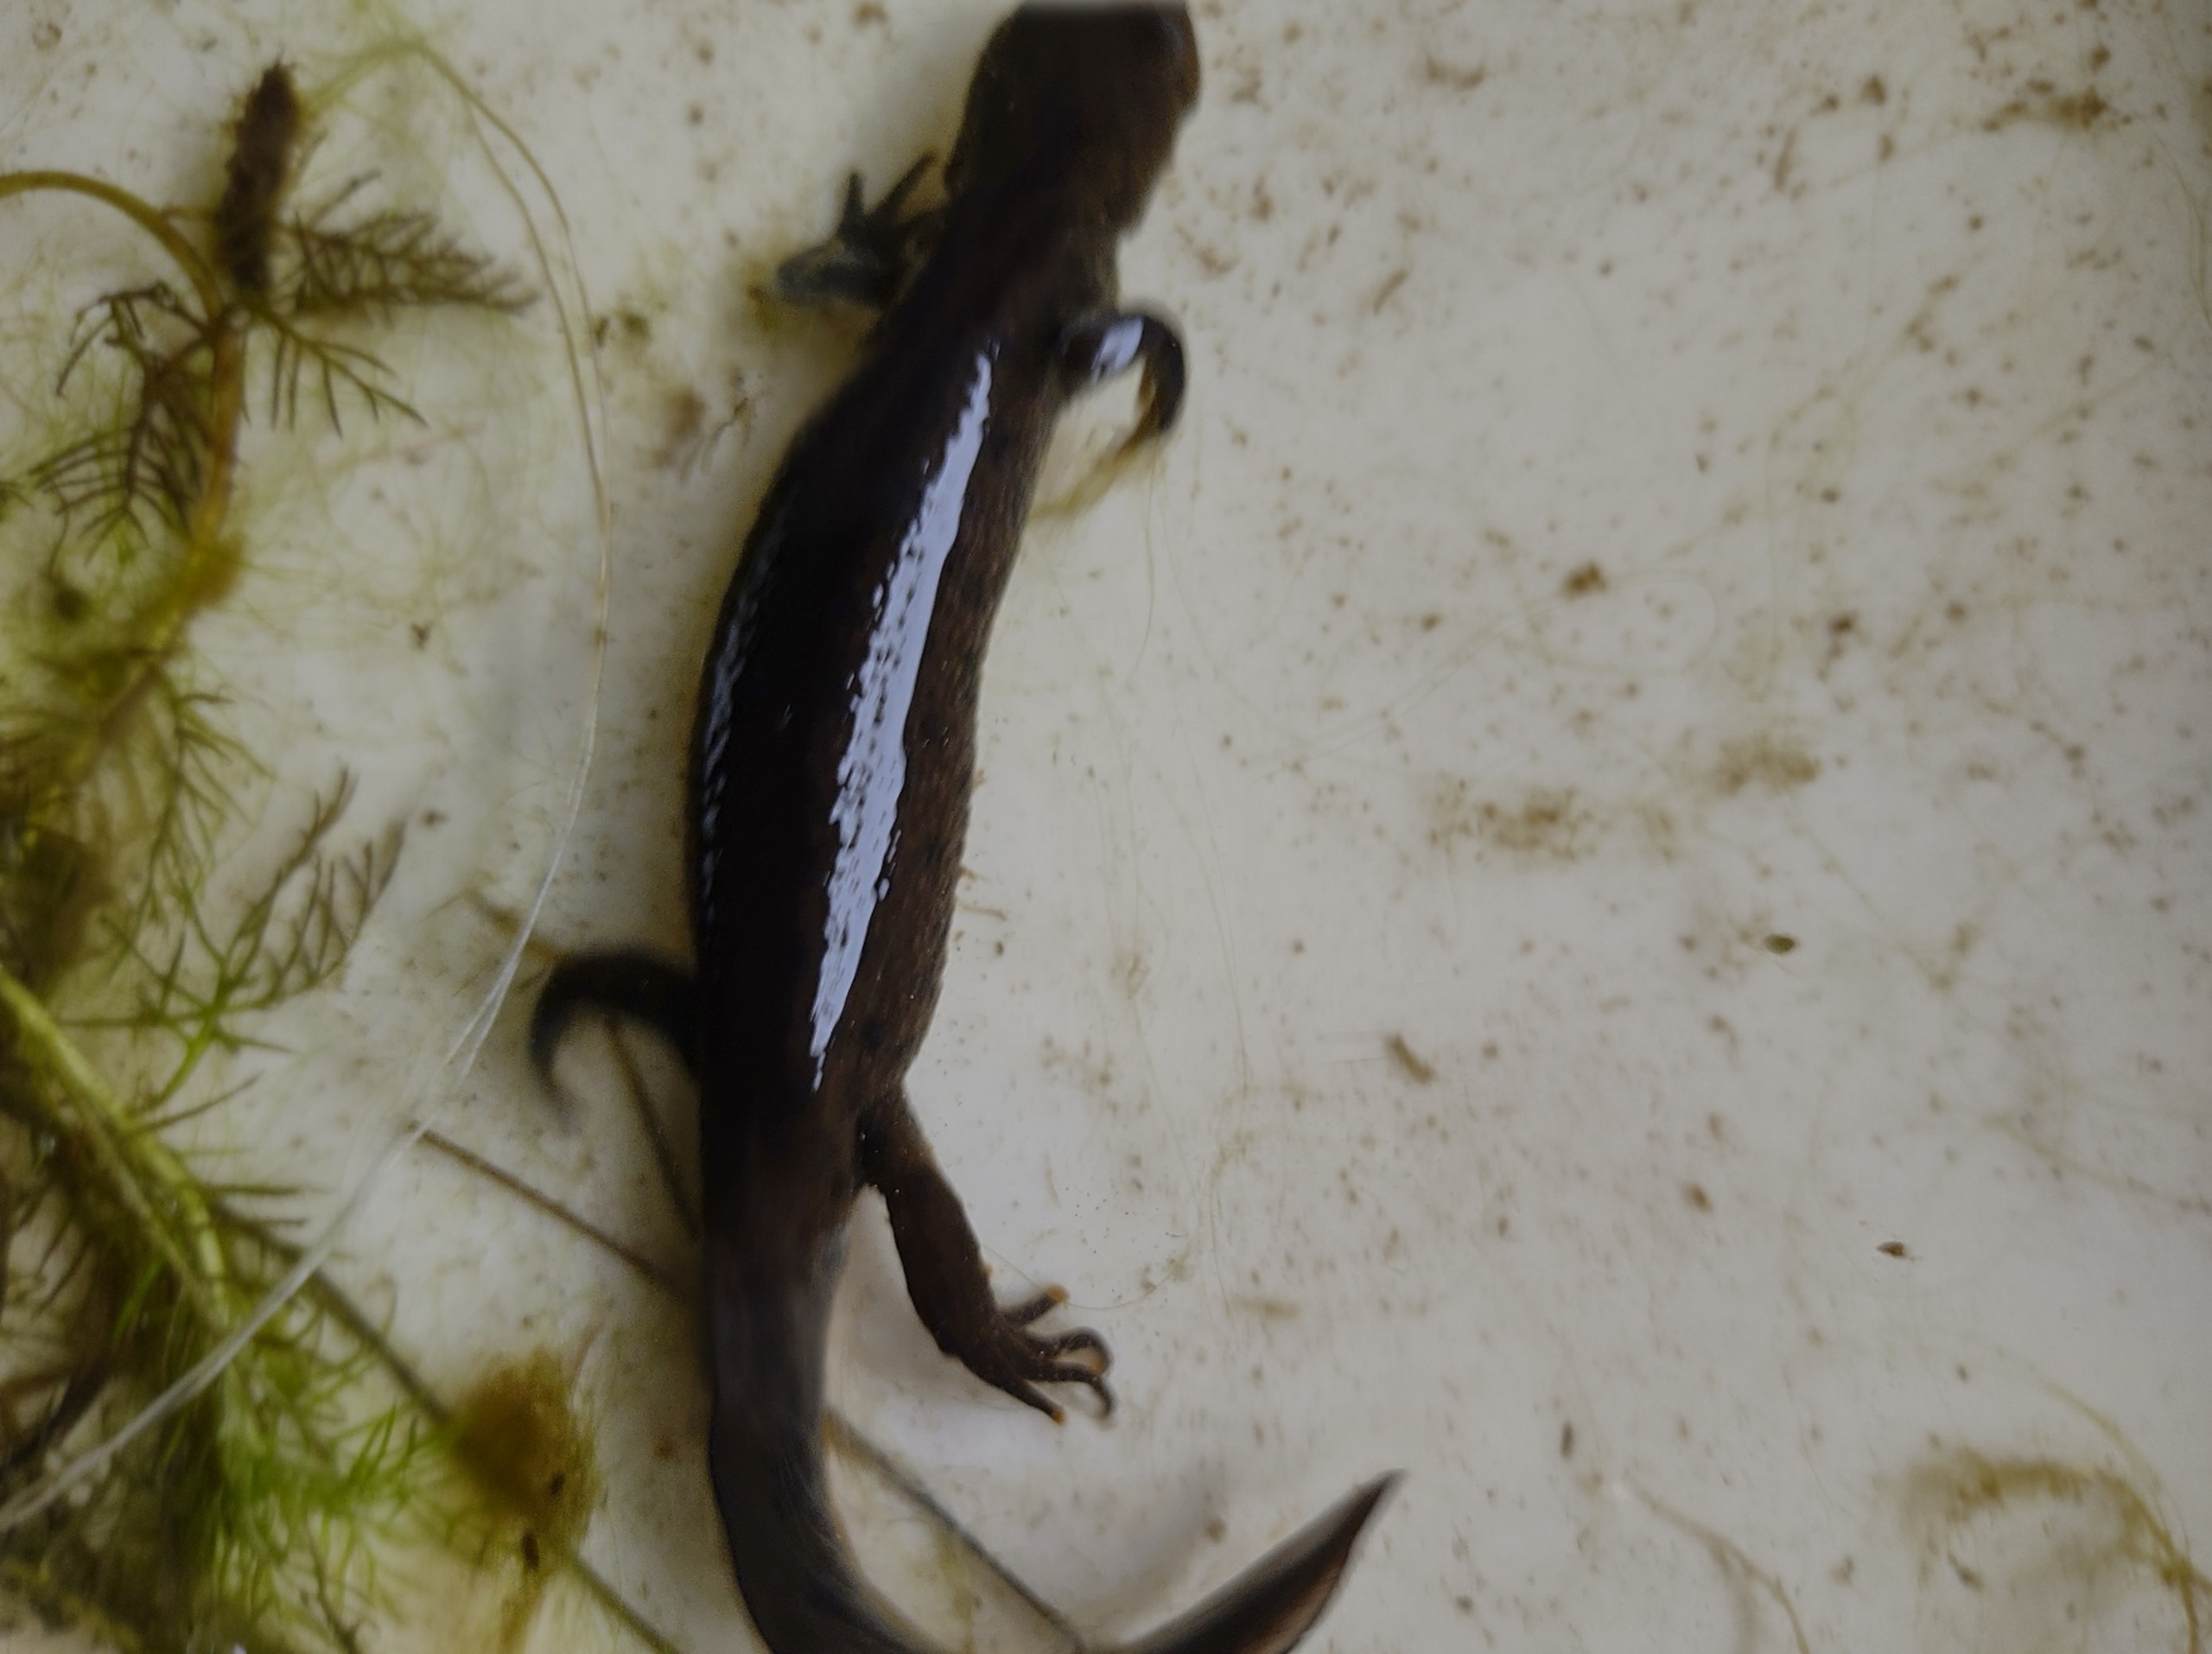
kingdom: Animalia
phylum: Chordata
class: Amphibia
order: Caudata
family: Salamandridae
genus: Triturus
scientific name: Triturus cristatus
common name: Stor vandsalamander
